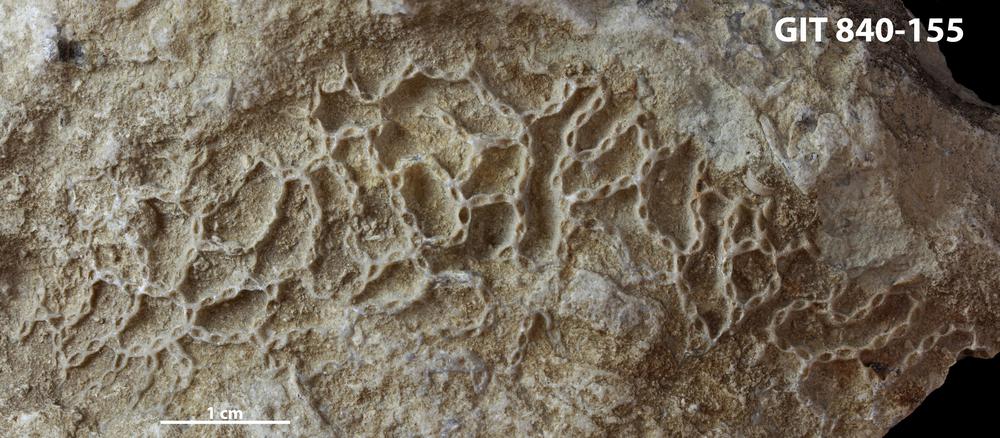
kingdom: Animalia
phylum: Cnidaria
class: Anthozoa
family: Cateniporidae
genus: Catenipora
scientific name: Catenipora
